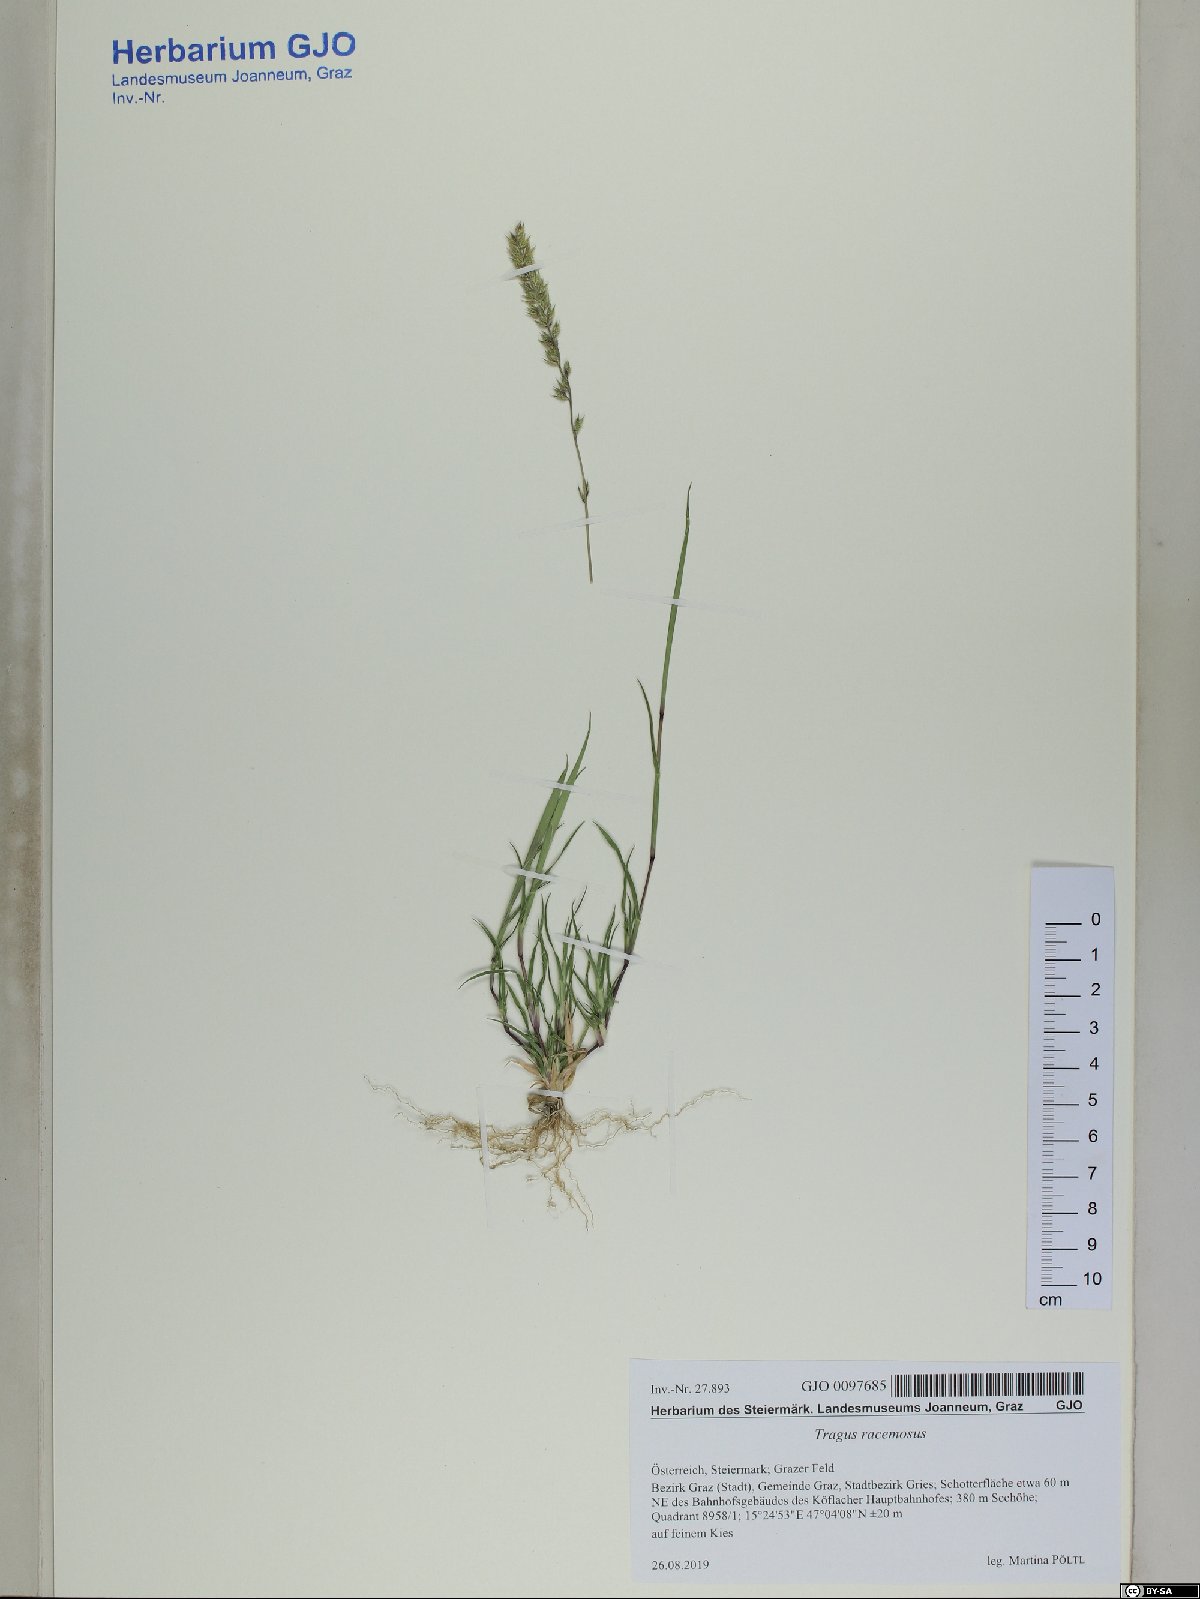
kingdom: Plantae
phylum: Tracheophyta
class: Liliopsida
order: Poales
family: Poaceae
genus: Tragus
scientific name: Tragus racemosus
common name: European bur-grass
